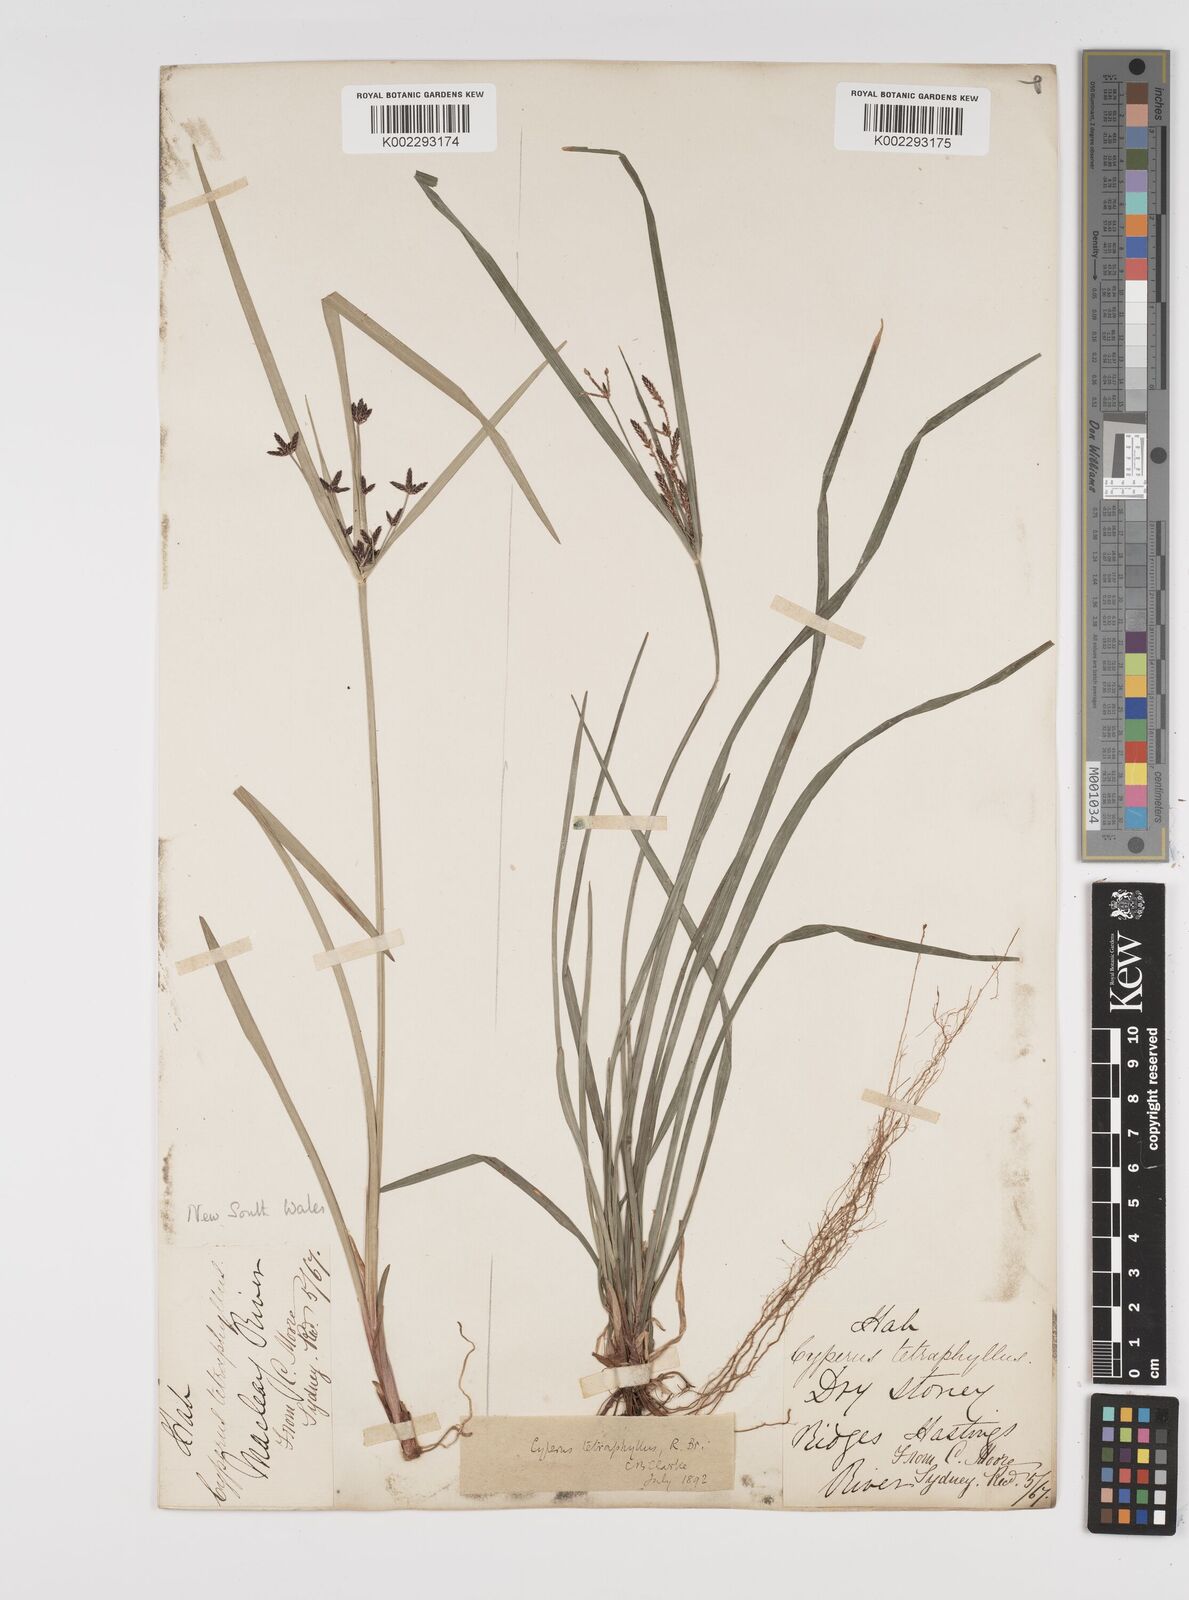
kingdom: Plantae
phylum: Tracheophyta
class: Liliopsida
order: Poales
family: Cyperaceae
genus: Cyperus
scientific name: Cyperus tetraphyllus
